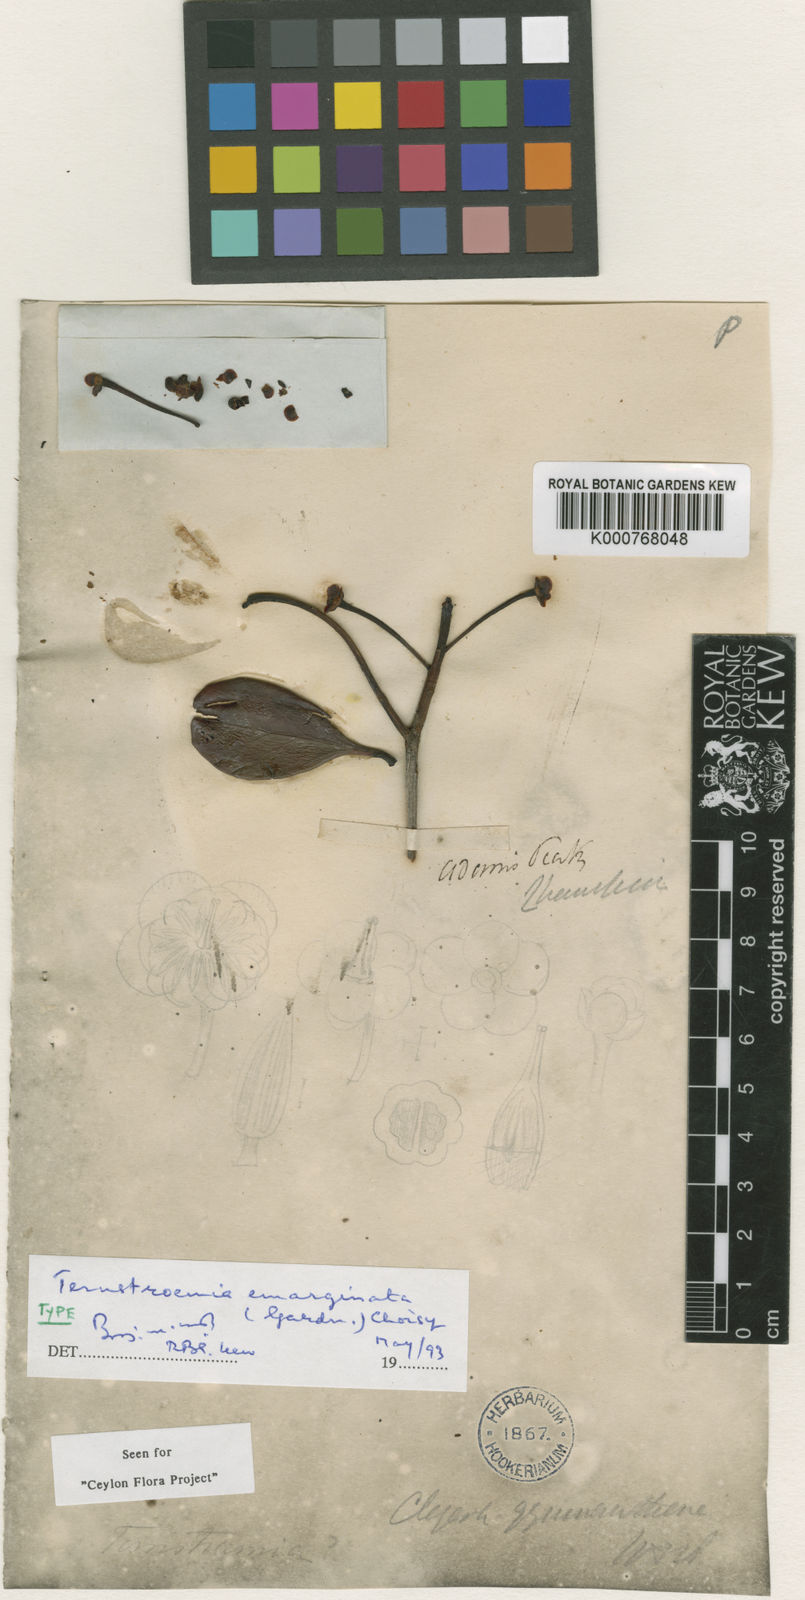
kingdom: Plantae
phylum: Tracheophyta
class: Magnoliopsida
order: Ericales
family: Pentaphylacaceae
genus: Ternstroemia
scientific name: Ternstroemia emarginata
